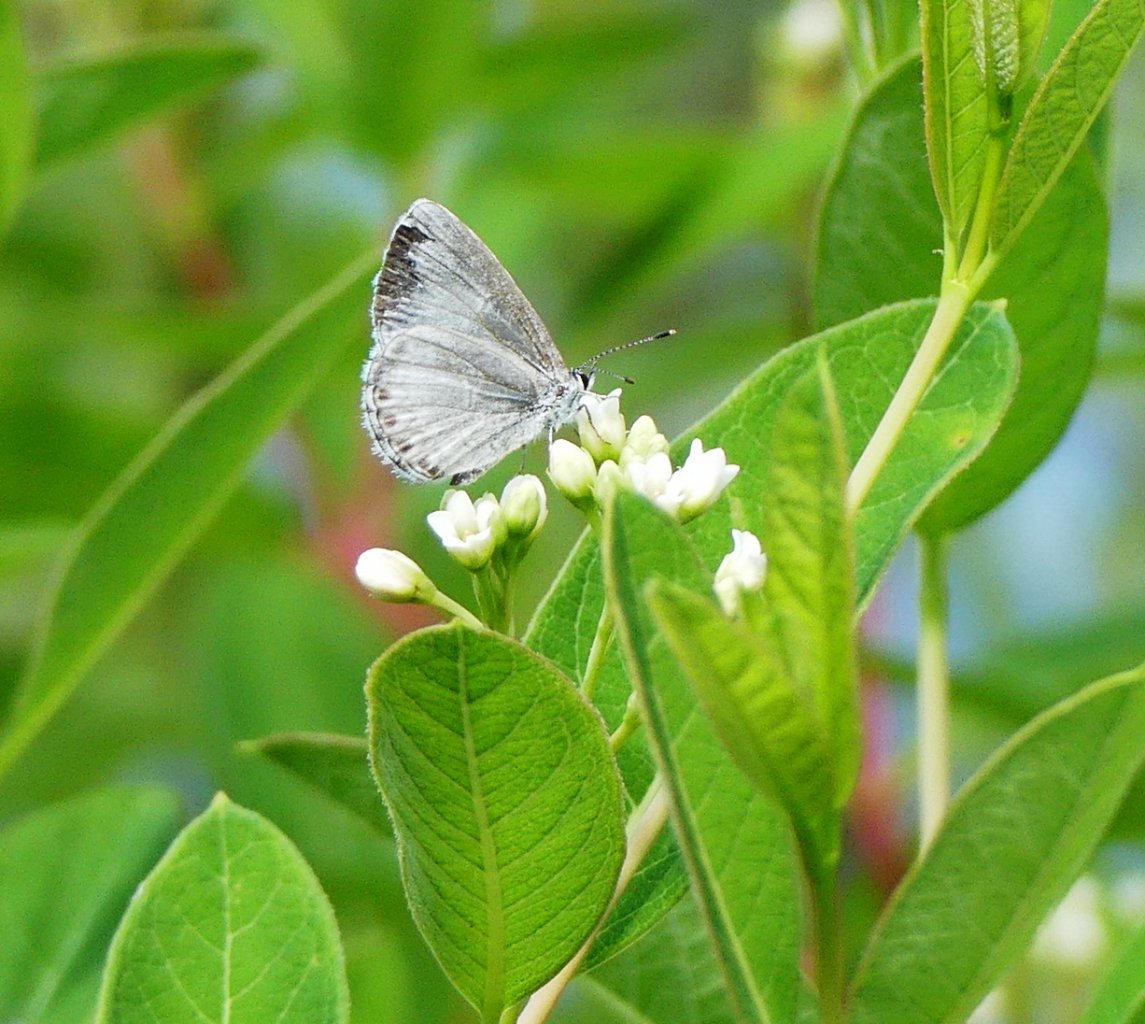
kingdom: Animalia
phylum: Arthropoda
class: Insecta
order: Lepidoptera
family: Lycaenidae
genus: Celastrina
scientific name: Celastrina
